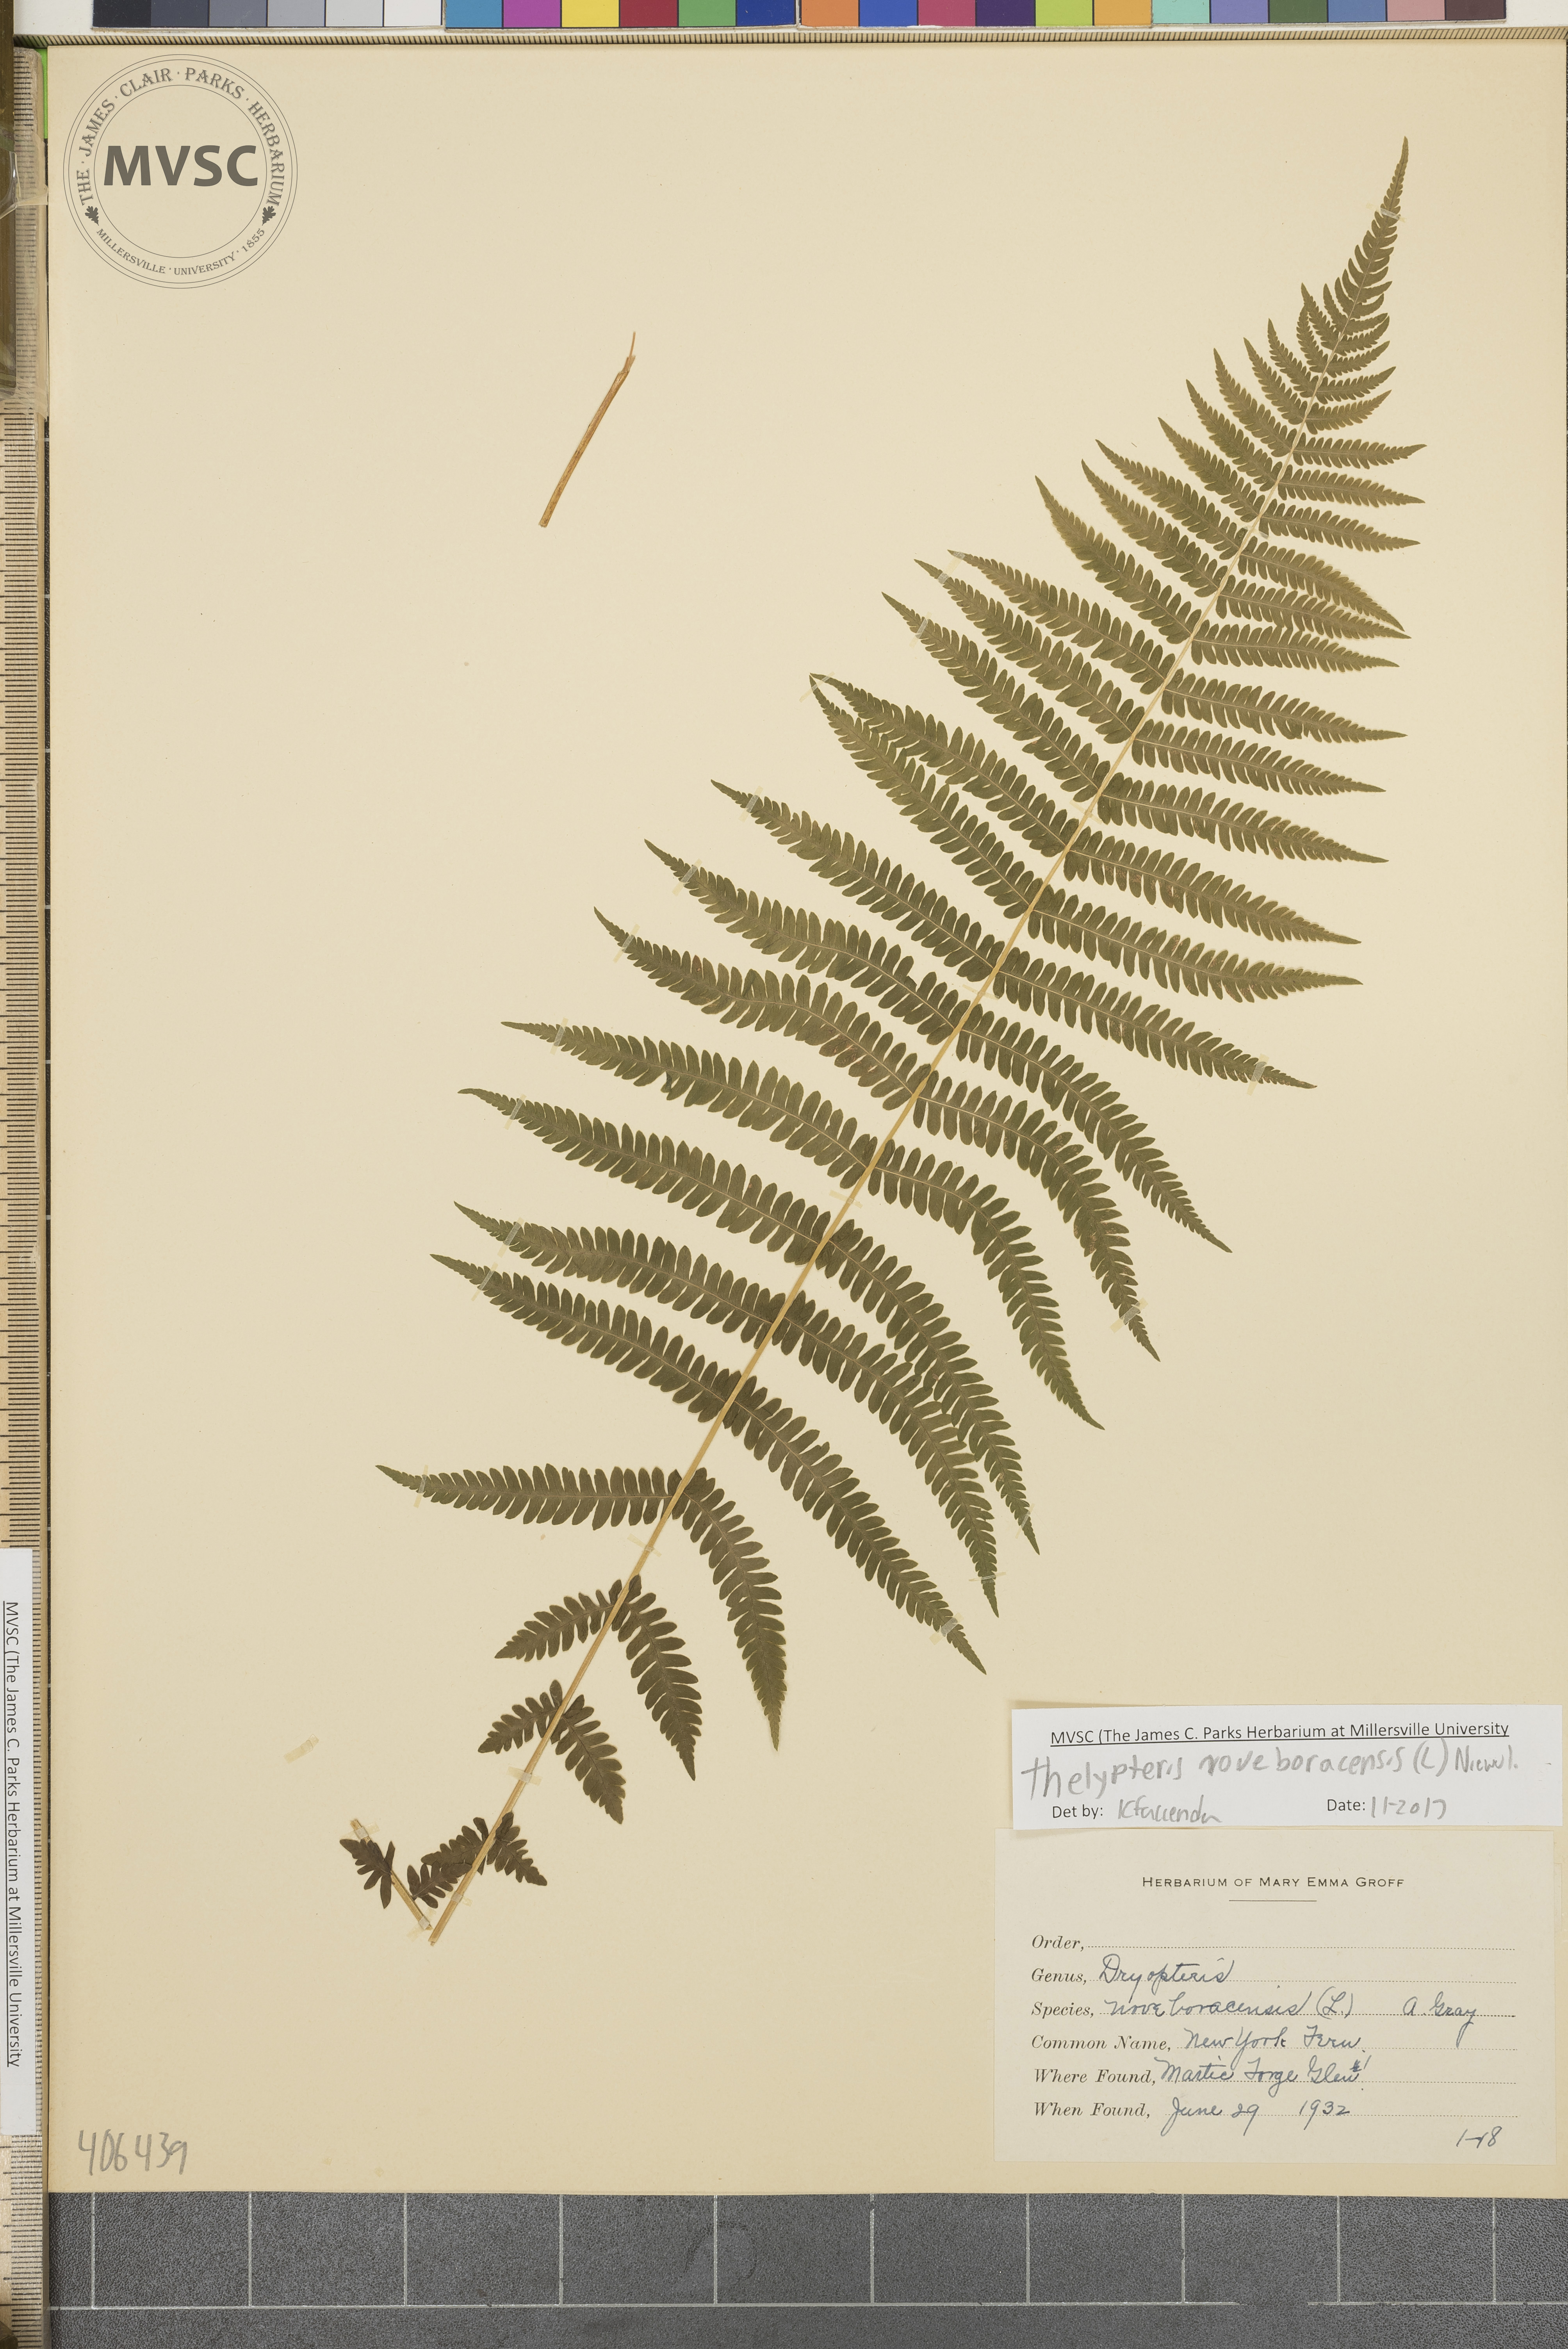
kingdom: Plantae
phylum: Tracheophyta
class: Polypodiopsida
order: Polypodiales
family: Thelypteridaceae
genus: Amauropelta
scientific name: Amauropelta noveboracensis
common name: New York fern
